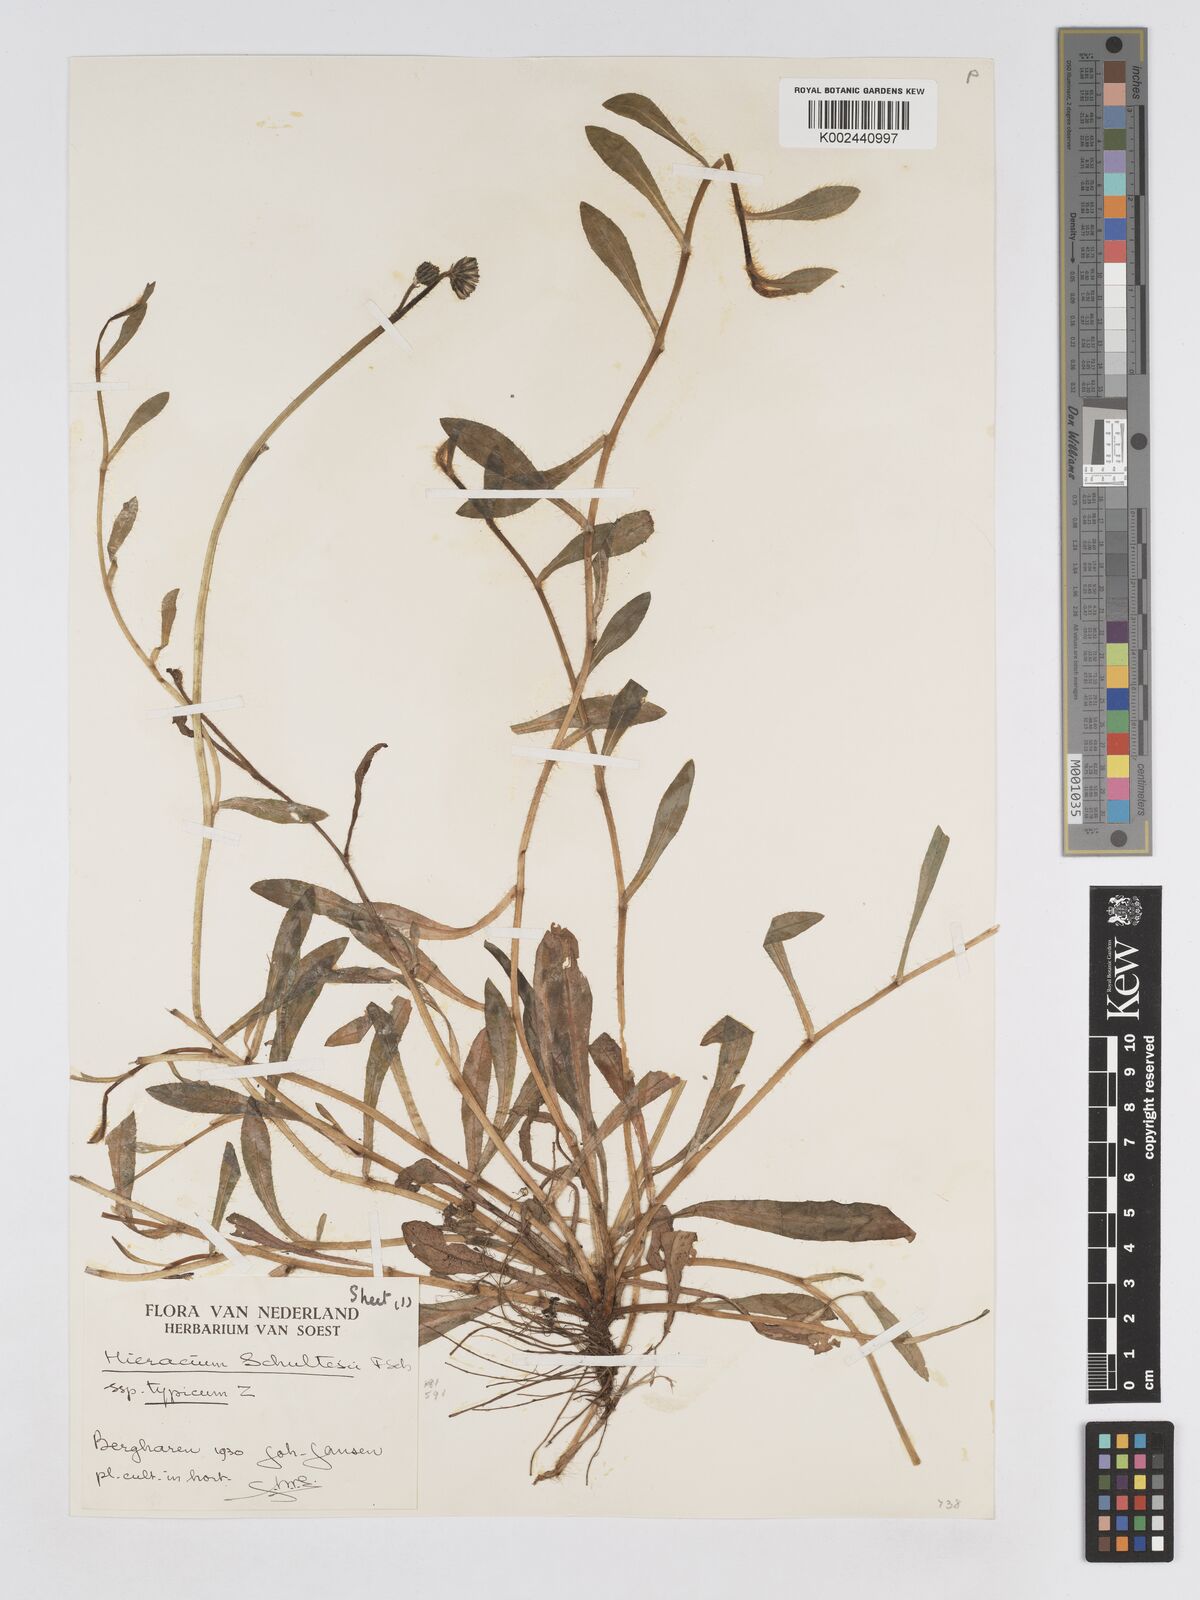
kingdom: Plantae
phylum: Tracheophyta
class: Magnoliopsida
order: Asterales
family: Asteraceae
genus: Pilosella
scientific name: Pilosella schultesii
